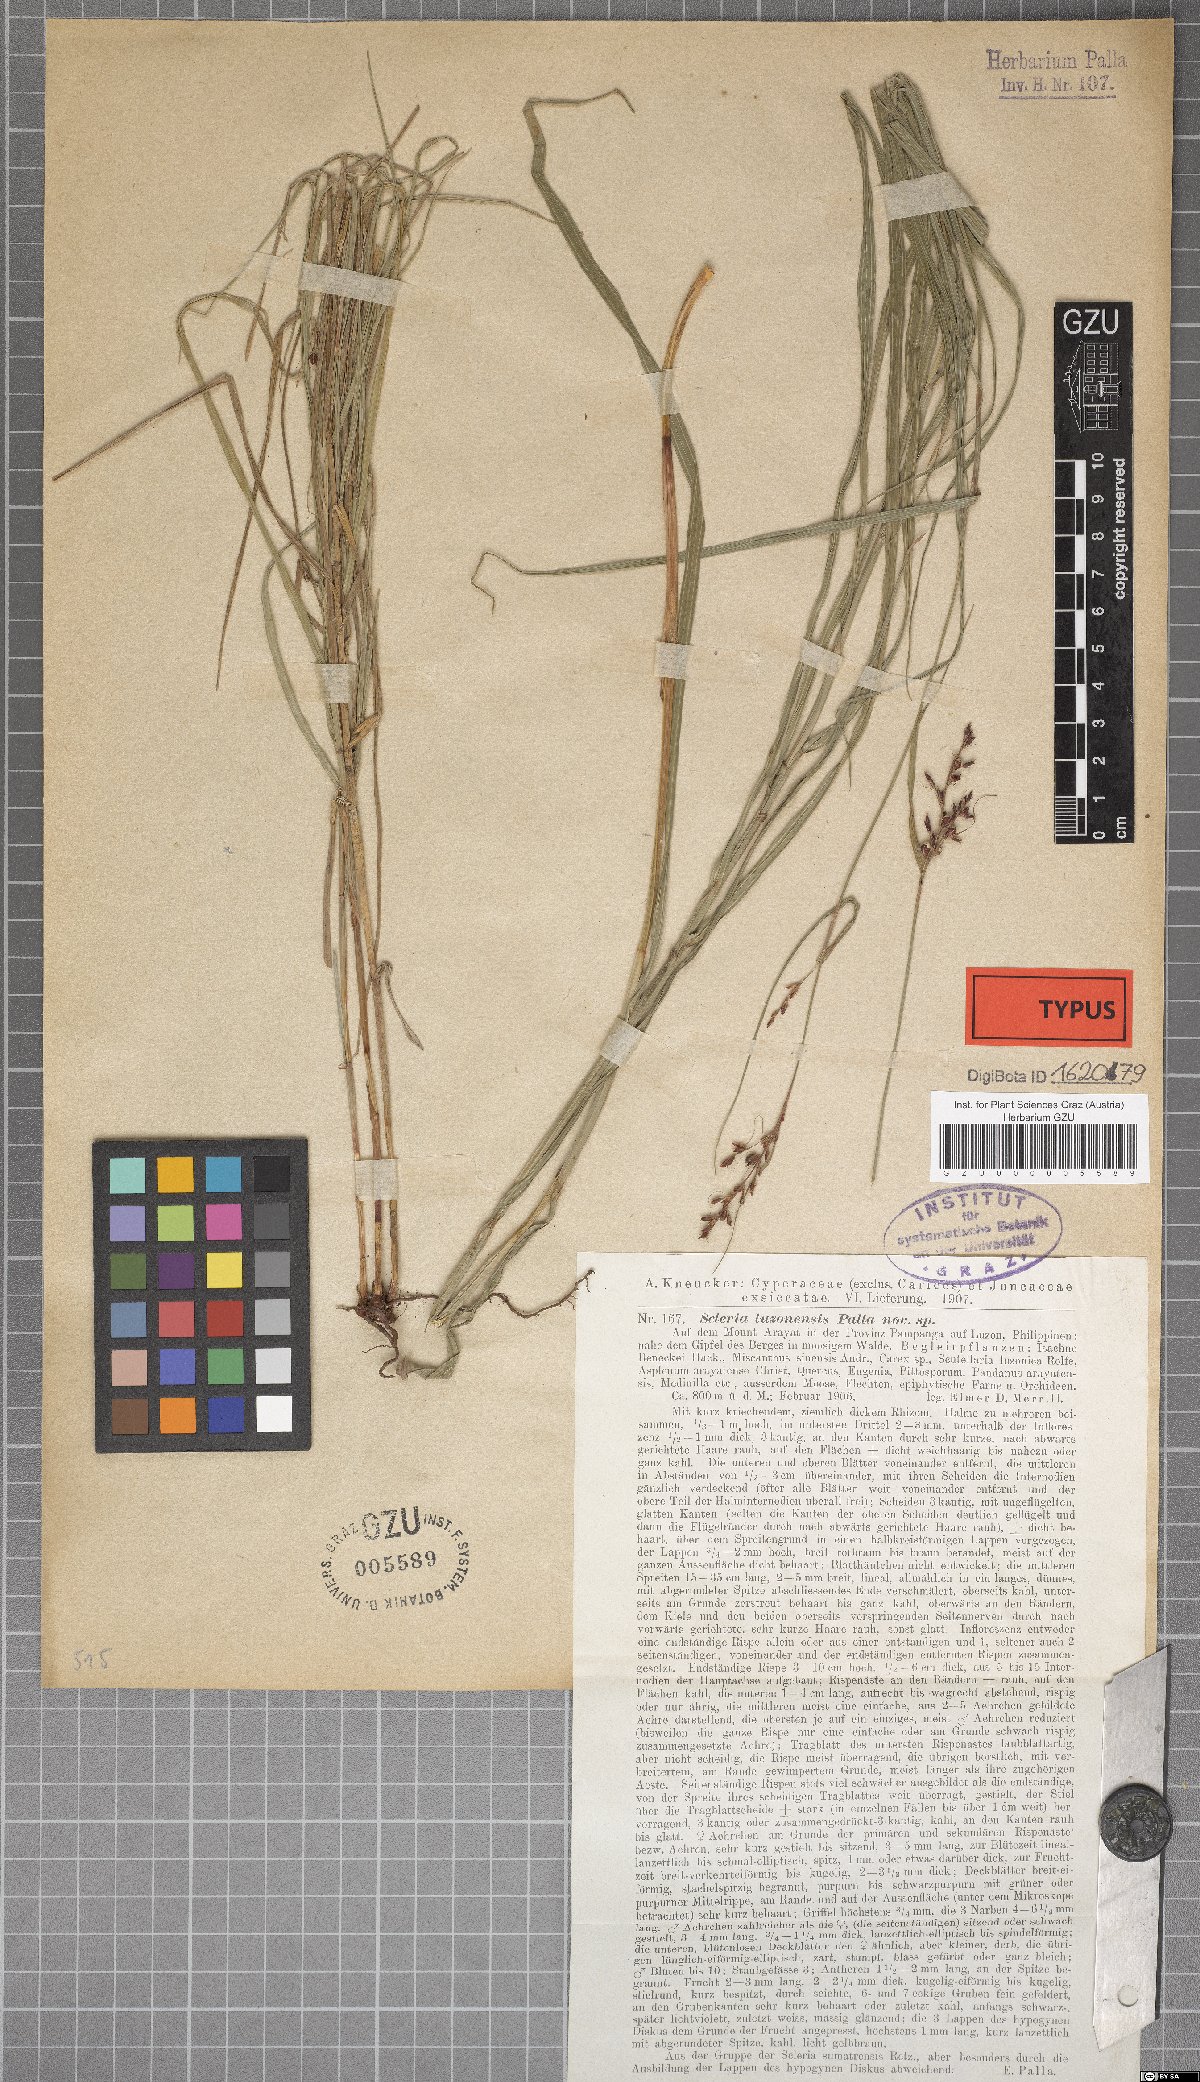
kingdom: Plantae
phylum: Tracheophyta
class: Liliopsida
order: Poales
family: Cyperaceae
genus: Scleria
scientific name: Scleria terrestris
